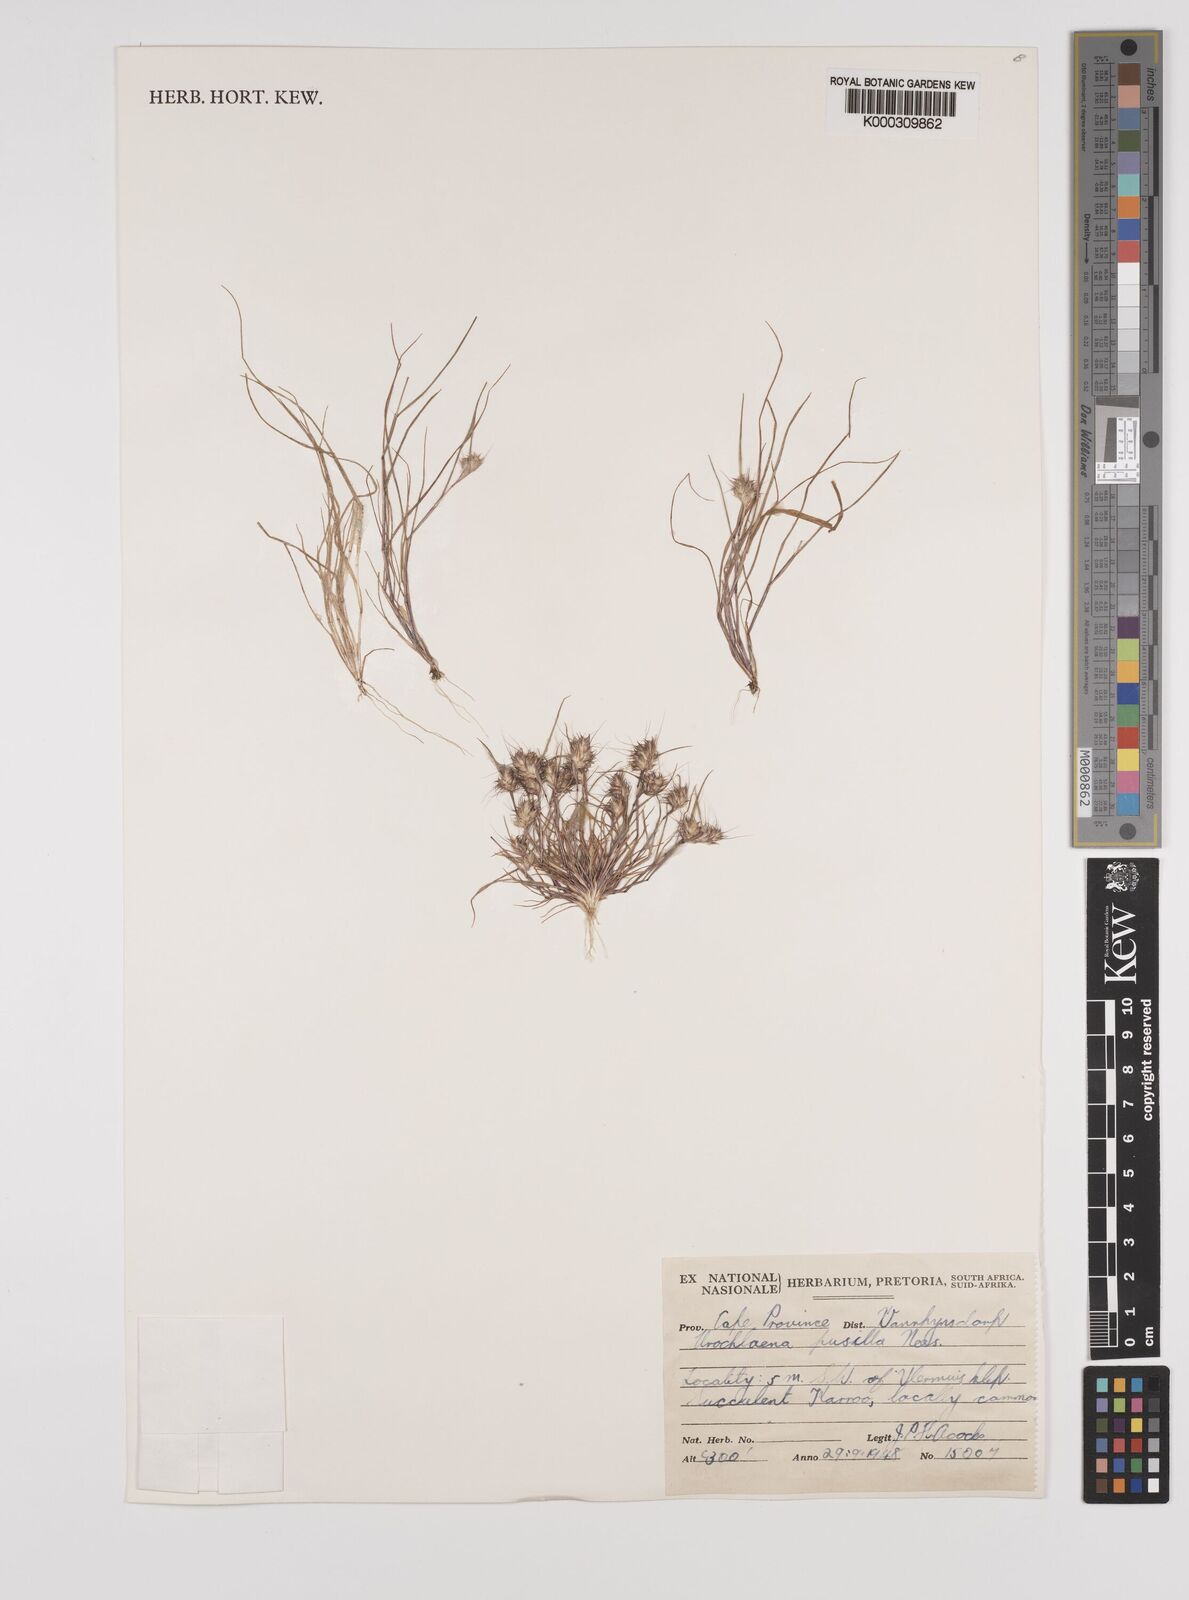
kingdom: Plantae
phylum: Tracheophyta
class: Liliopsida
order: Poales
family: Poaceae
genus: Tribolium
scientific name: Tribolium pusillum
